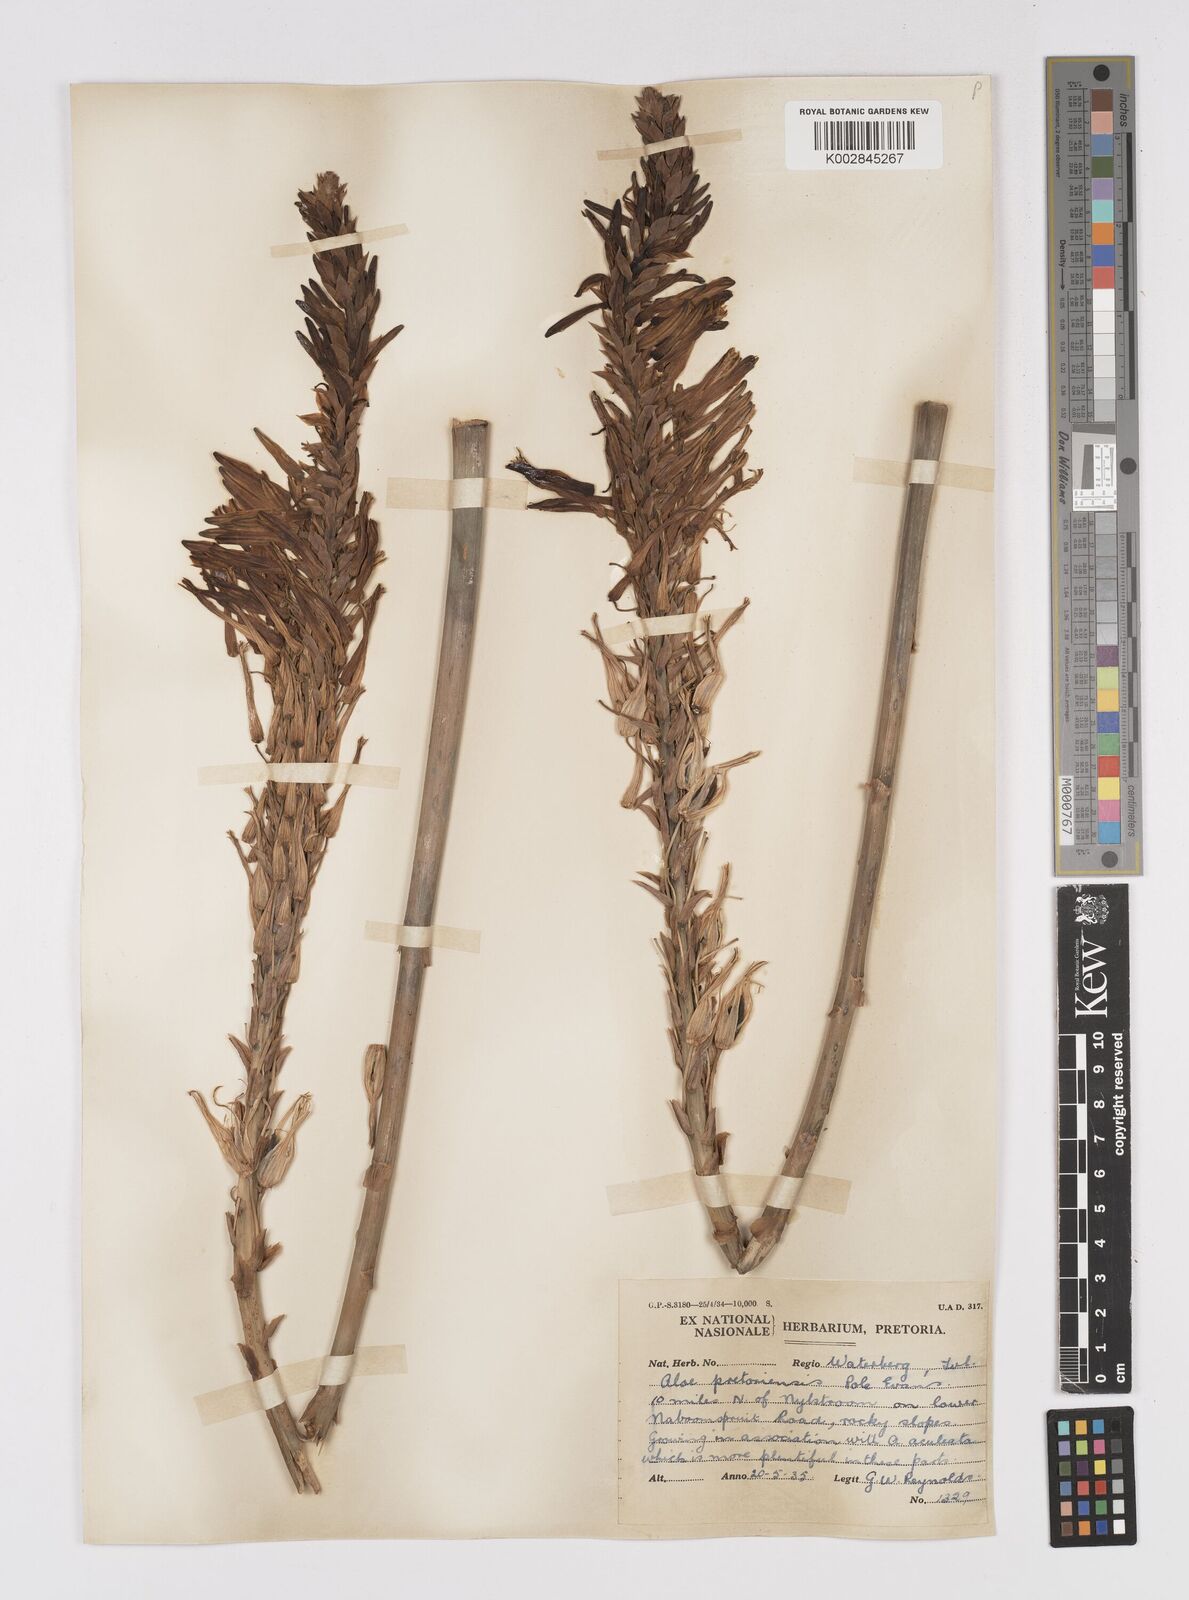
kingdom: Plantae
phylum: Tracheophyta
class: Liliopsida
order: Asparagales
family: Asphodelaceae
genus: Aloe
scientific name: Aloe pretoriensis
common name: Pretoria aloe
